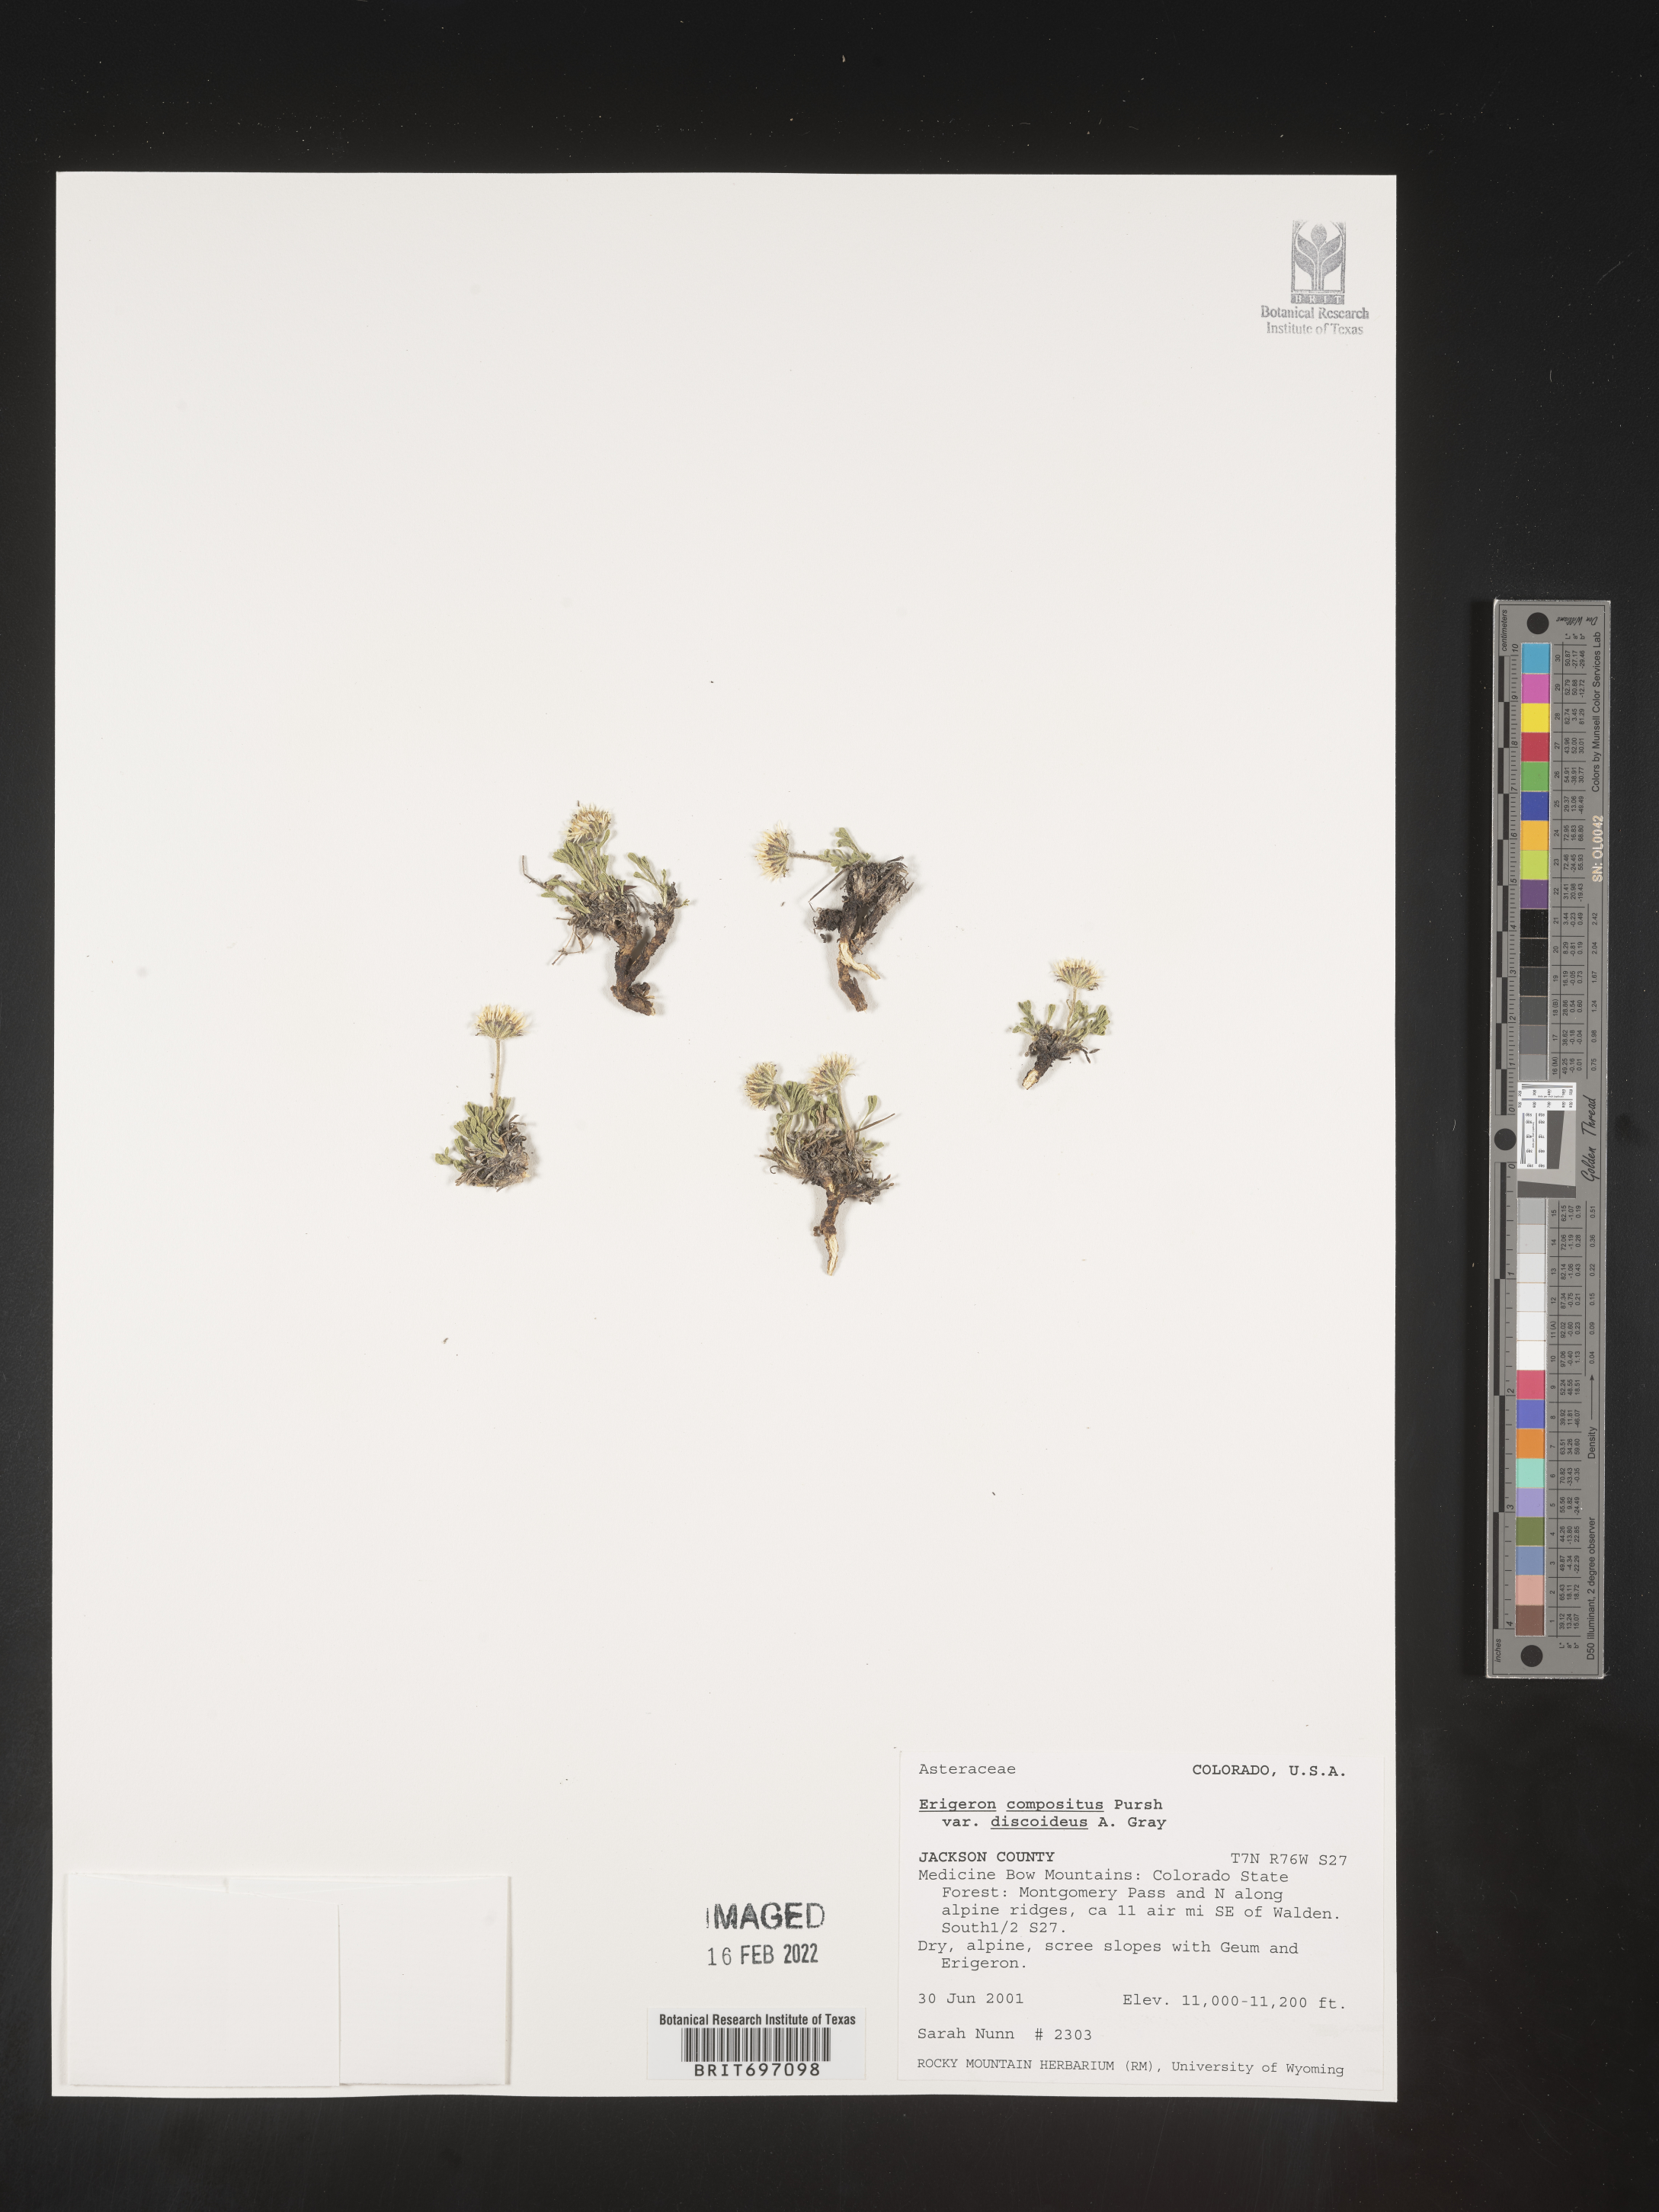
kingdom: Plantae
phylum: Tracheophyta
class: Magnoliopsida
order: Asterales
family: Asteraceae
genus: Erigeron
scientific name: Erigeron compositus
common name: Dwarf mountain fleabane
